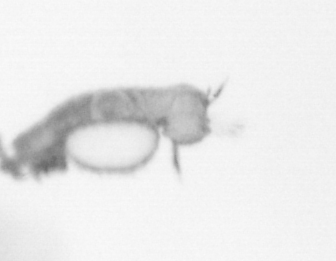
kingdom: Animalia
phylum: Annelida
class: Polychaeta
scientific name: Polychaeta
